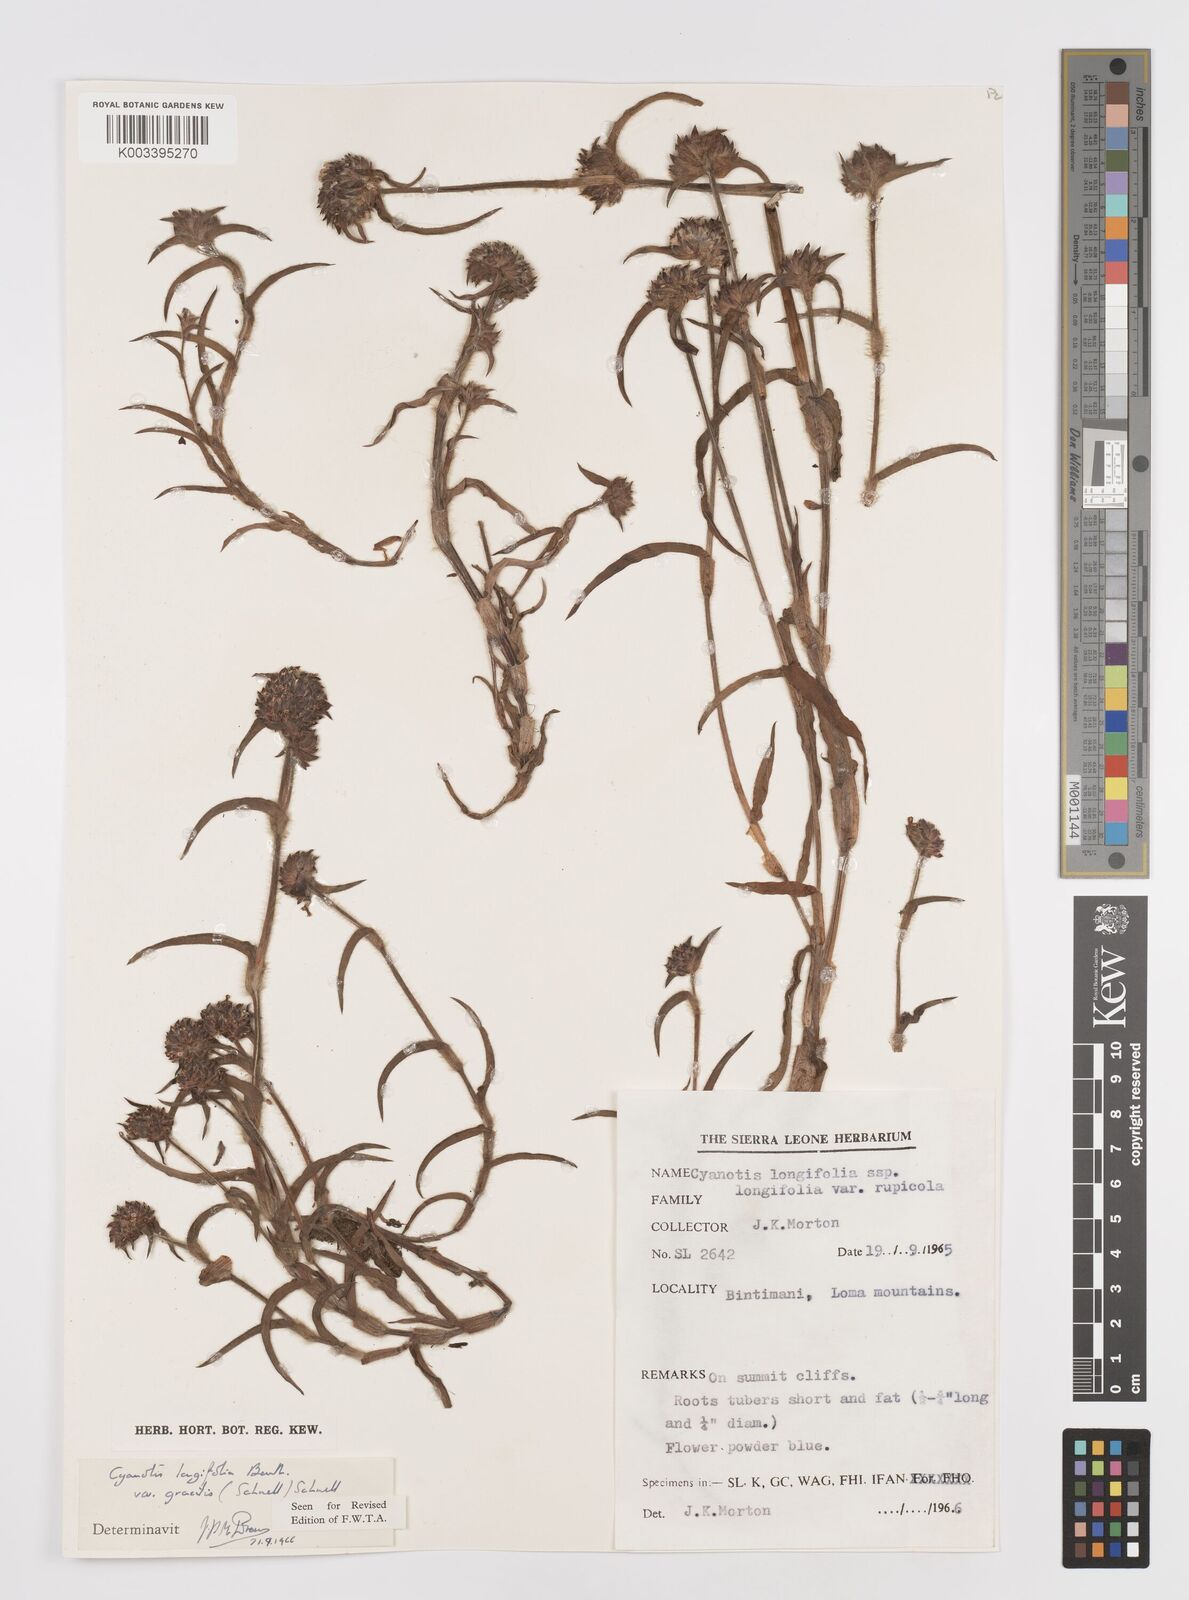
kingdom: Plantae
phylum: Tracheophyta
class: Liliopsida
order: Commelinales
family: Commelinaceae
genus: Cyanotis
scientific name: Cyanotis longifolia
